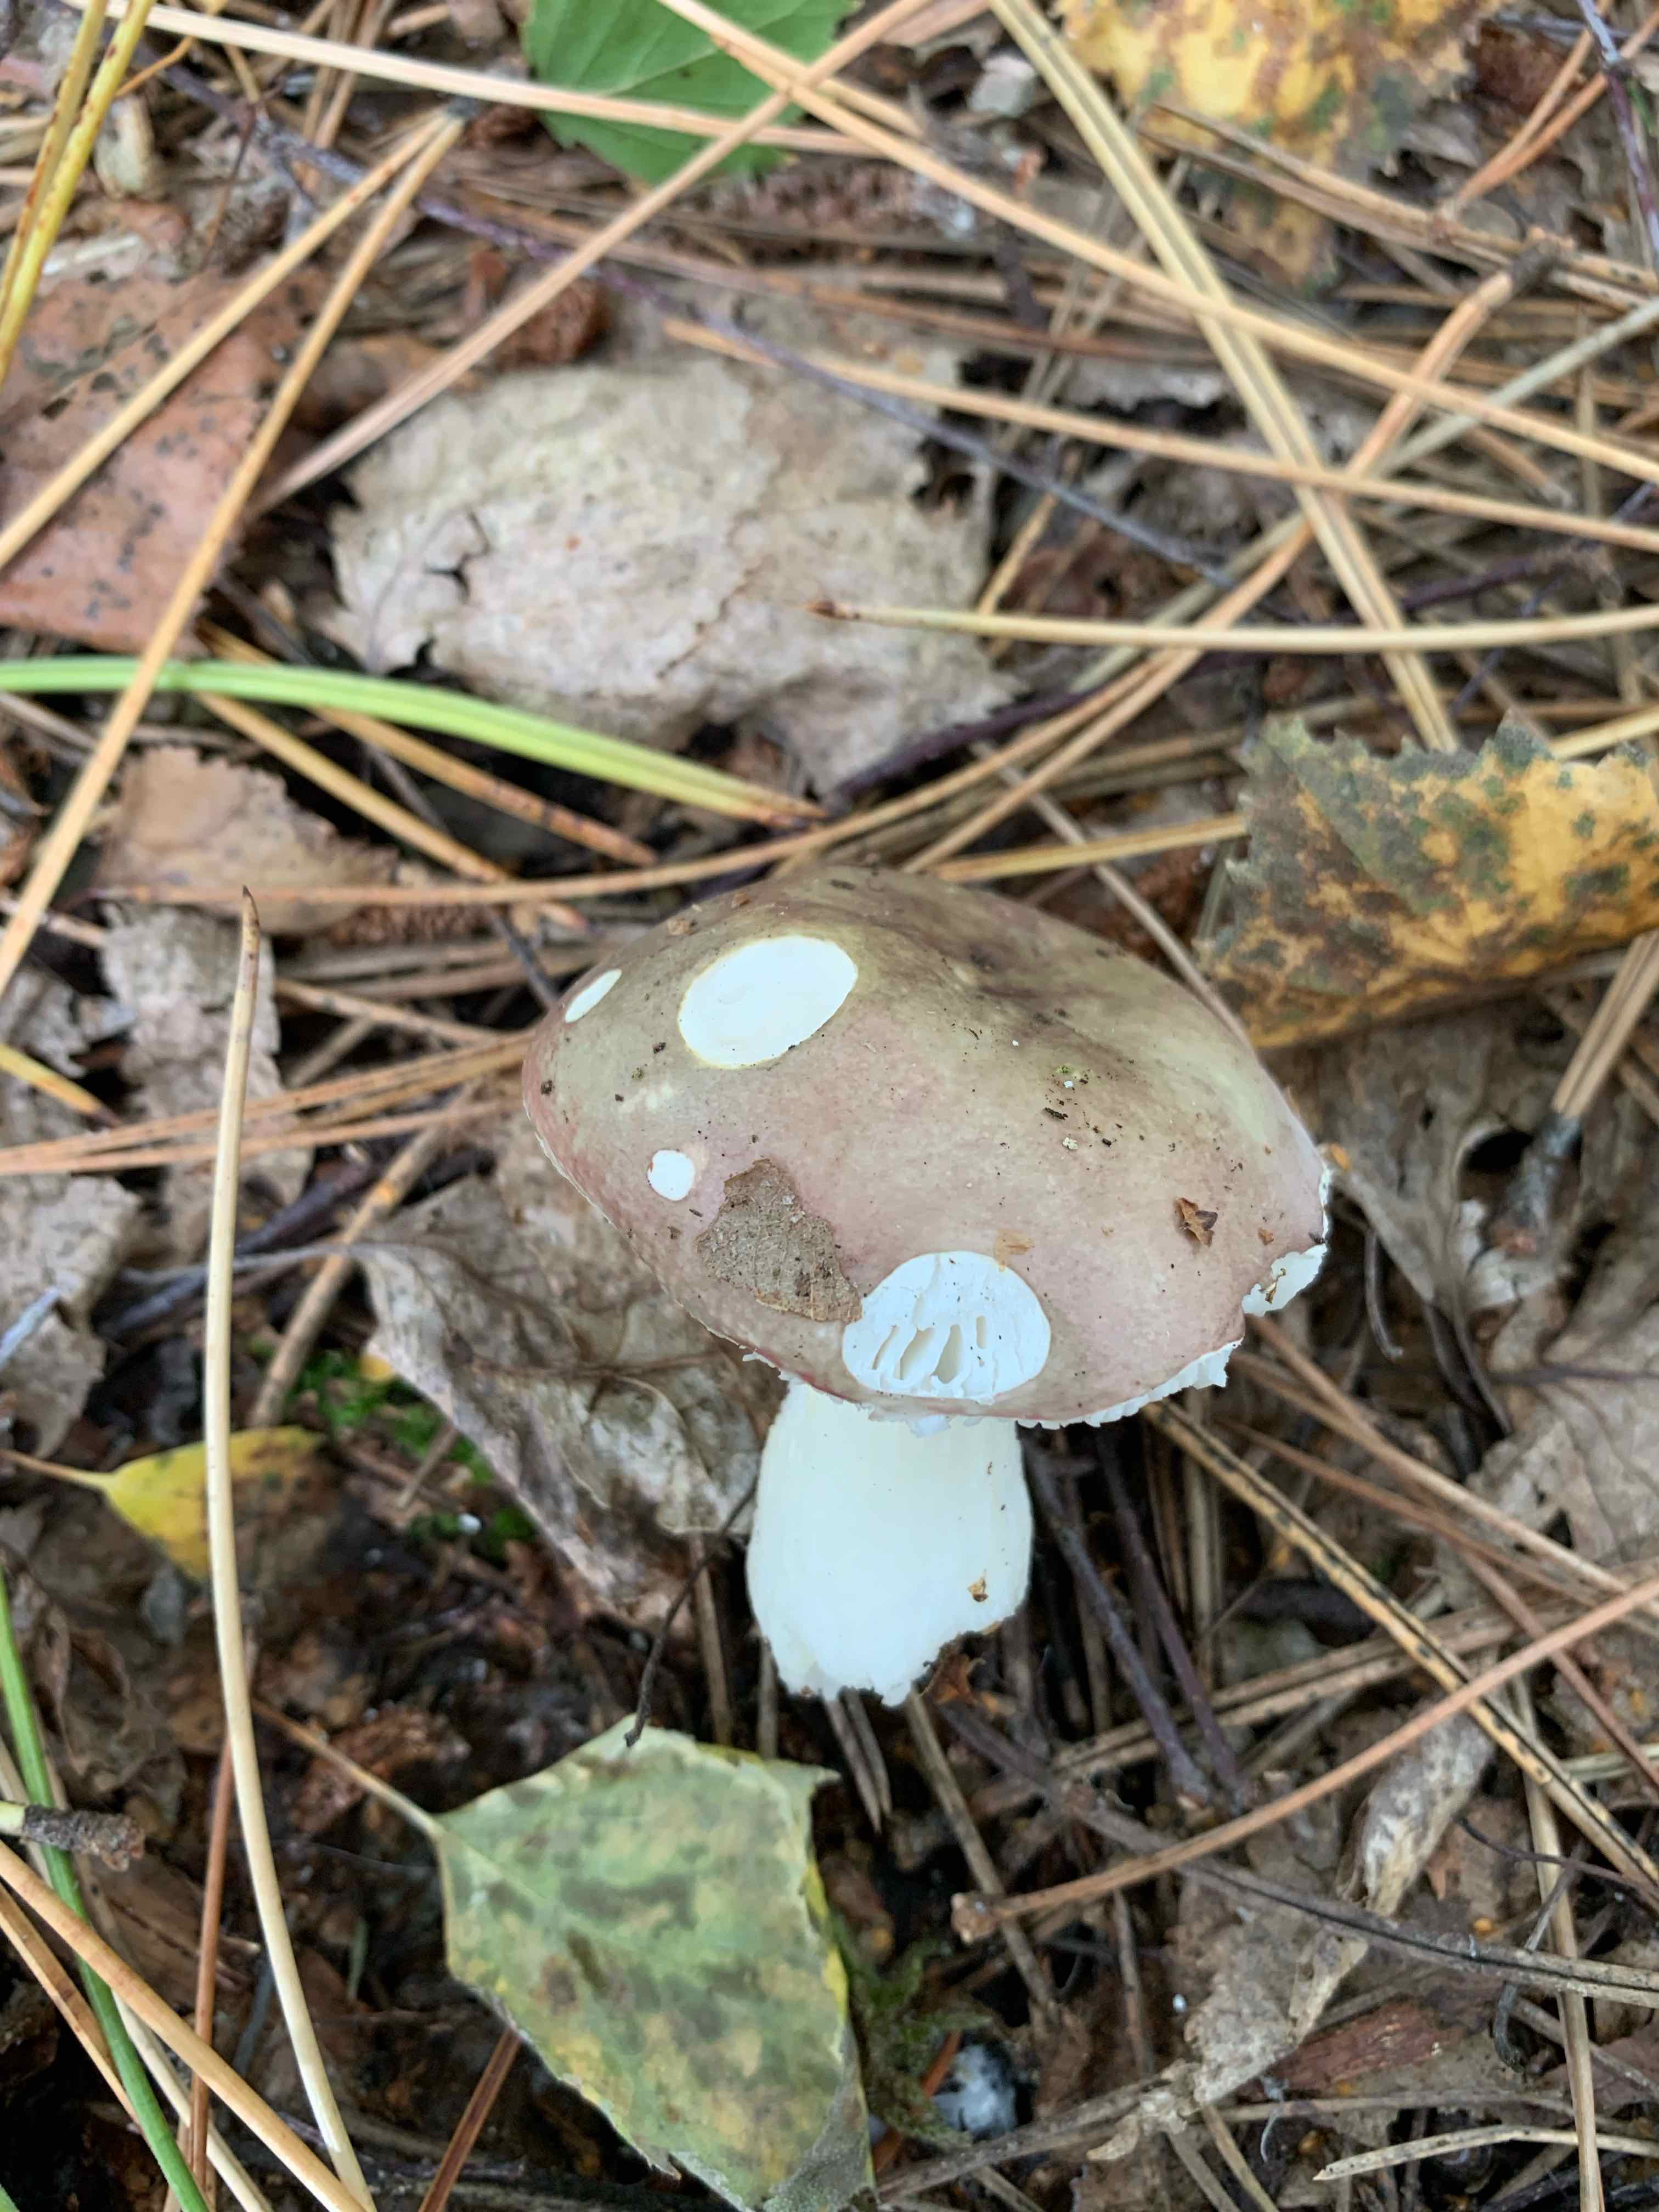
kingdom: Fungi
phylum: Basidiomycota
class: Agaricomycetes
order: Russulales
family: Russulaceae
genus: Russula
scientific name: Russula
